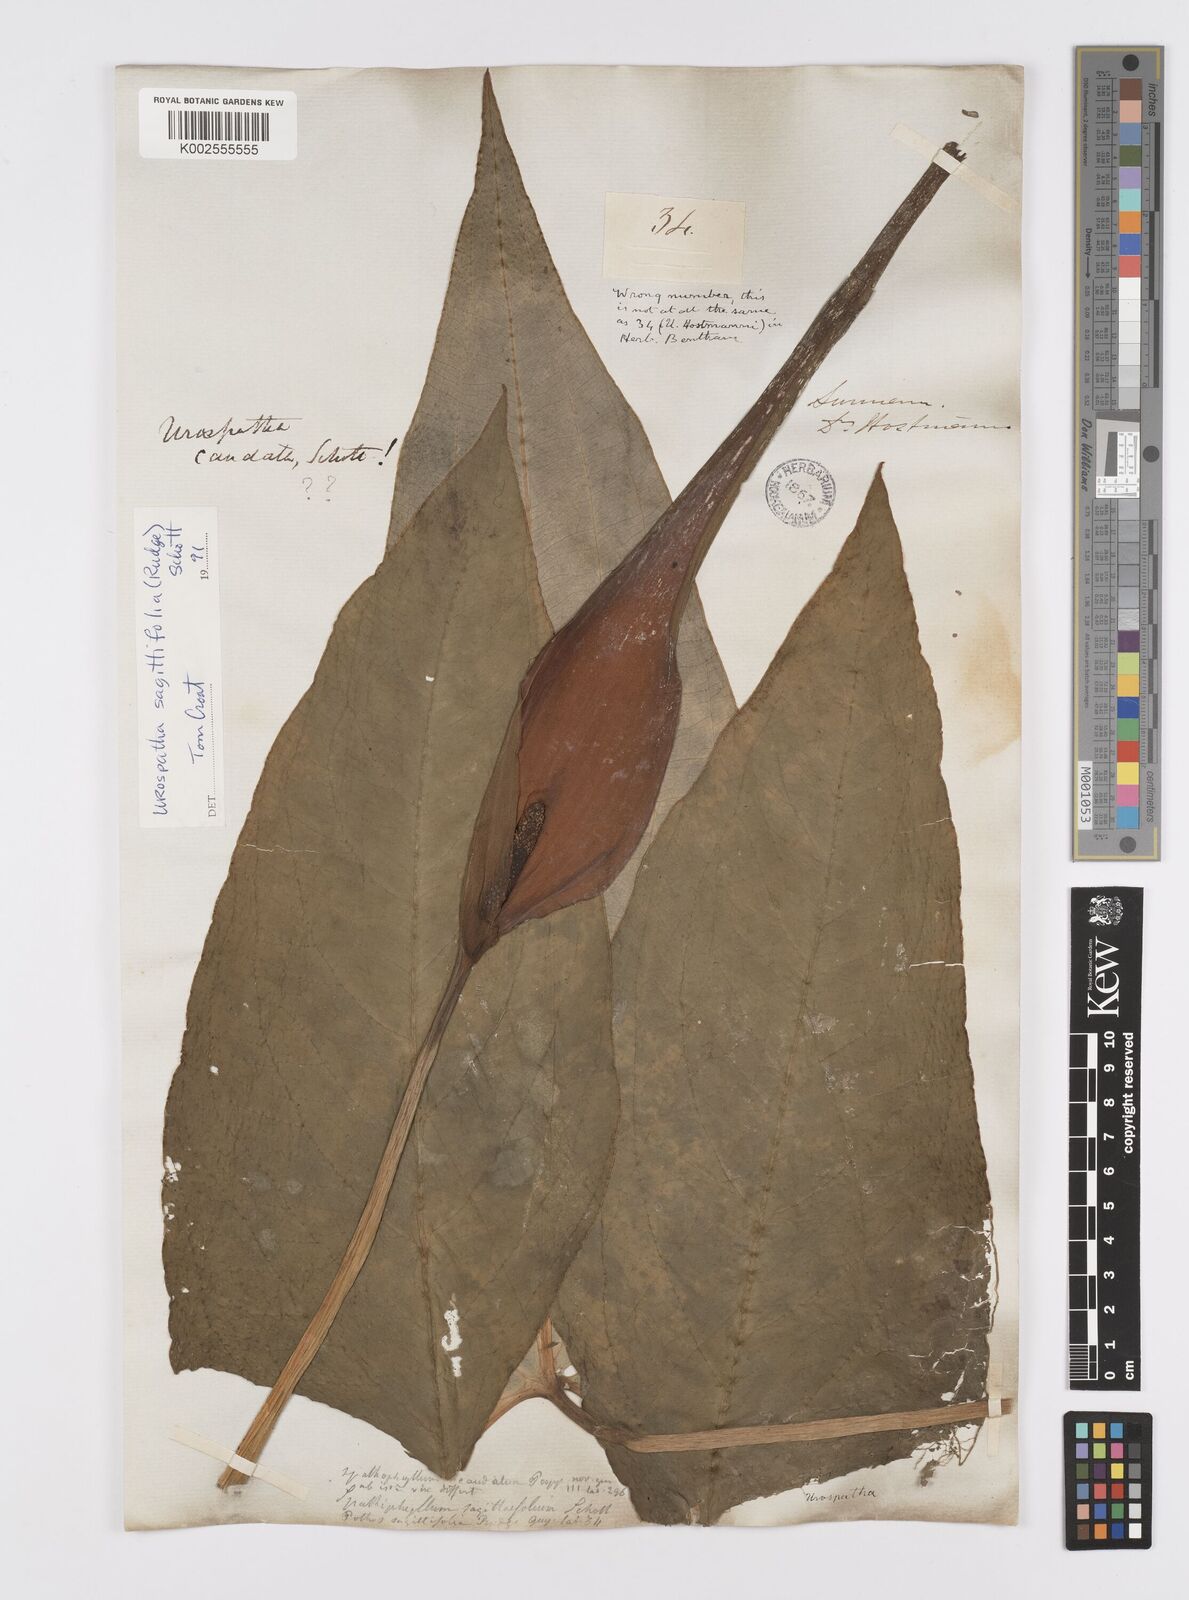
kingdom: Plantae
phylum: Tracheophyta
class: Liliopsida
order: Alismatales
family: Araceae
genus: Urospatha
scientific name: Urospatha sagittifolia
